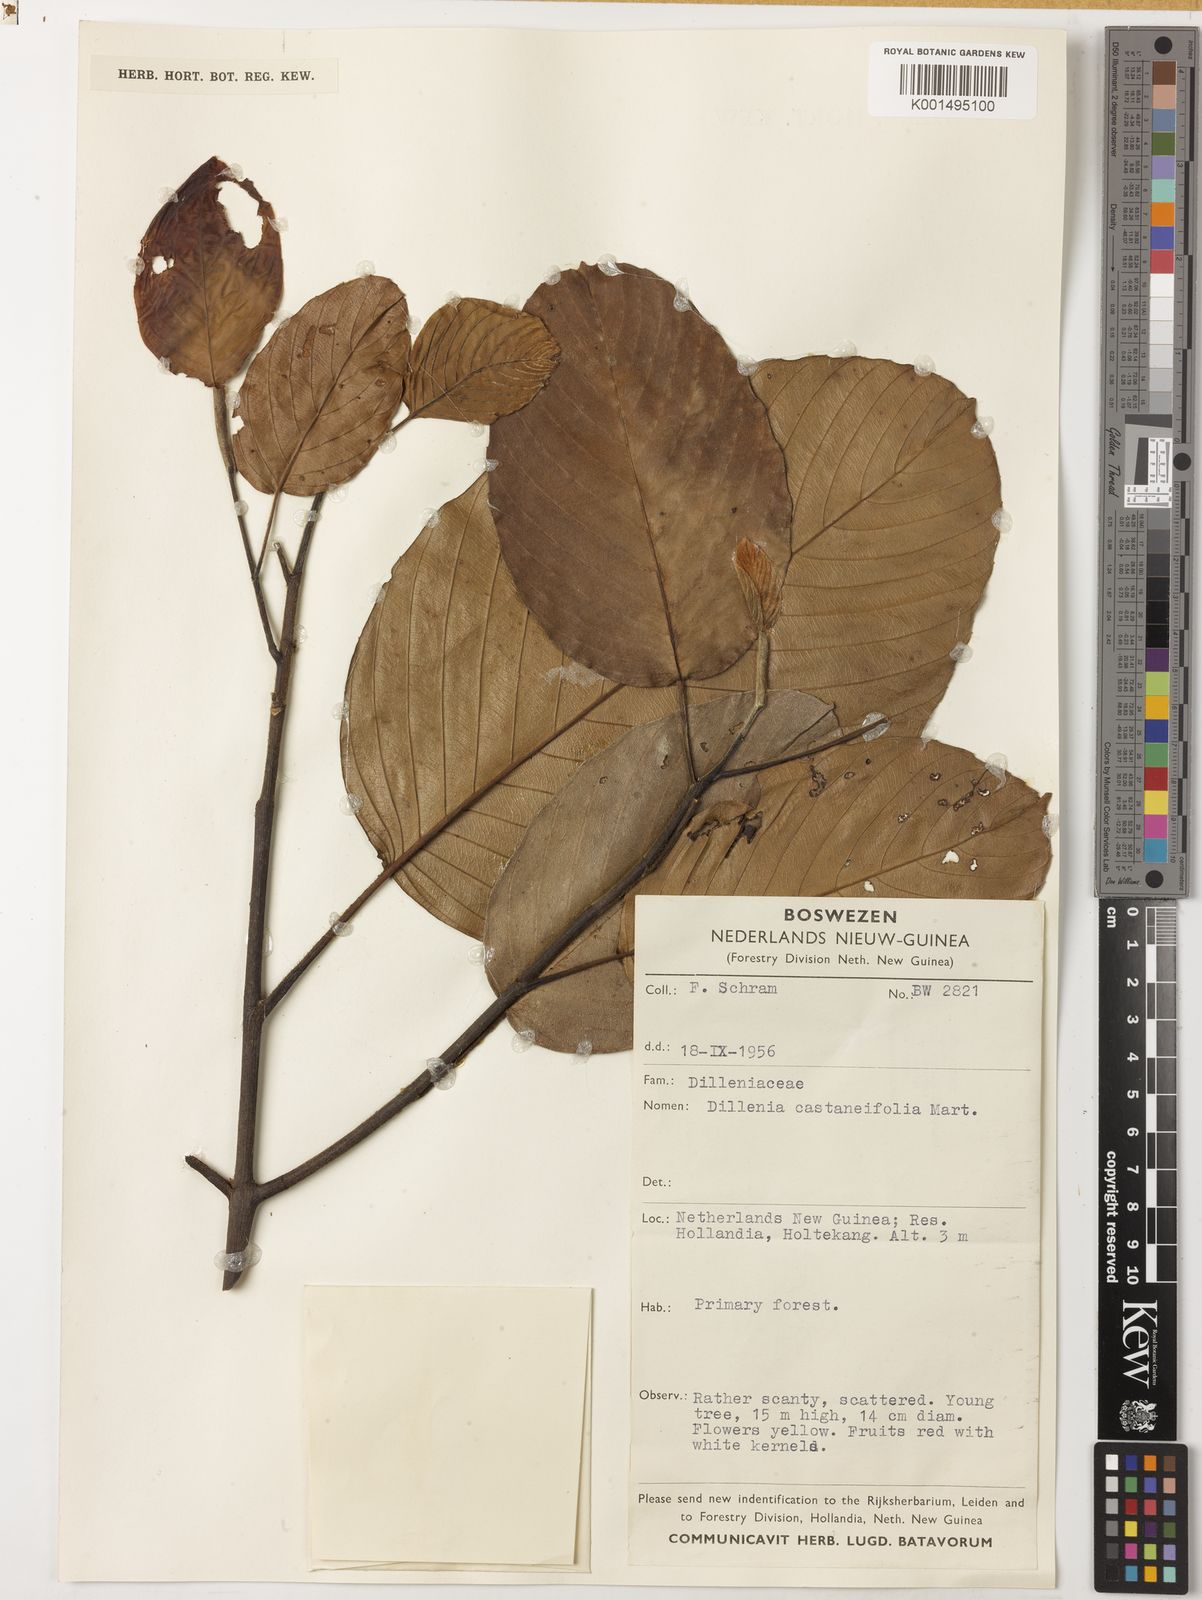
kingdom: Plantae
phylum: Tracheophyta
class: Magnoliopsida
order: Dilleniales
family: Dilleniaceae
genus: Dillenia
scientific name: Dillenia castaneifolia
